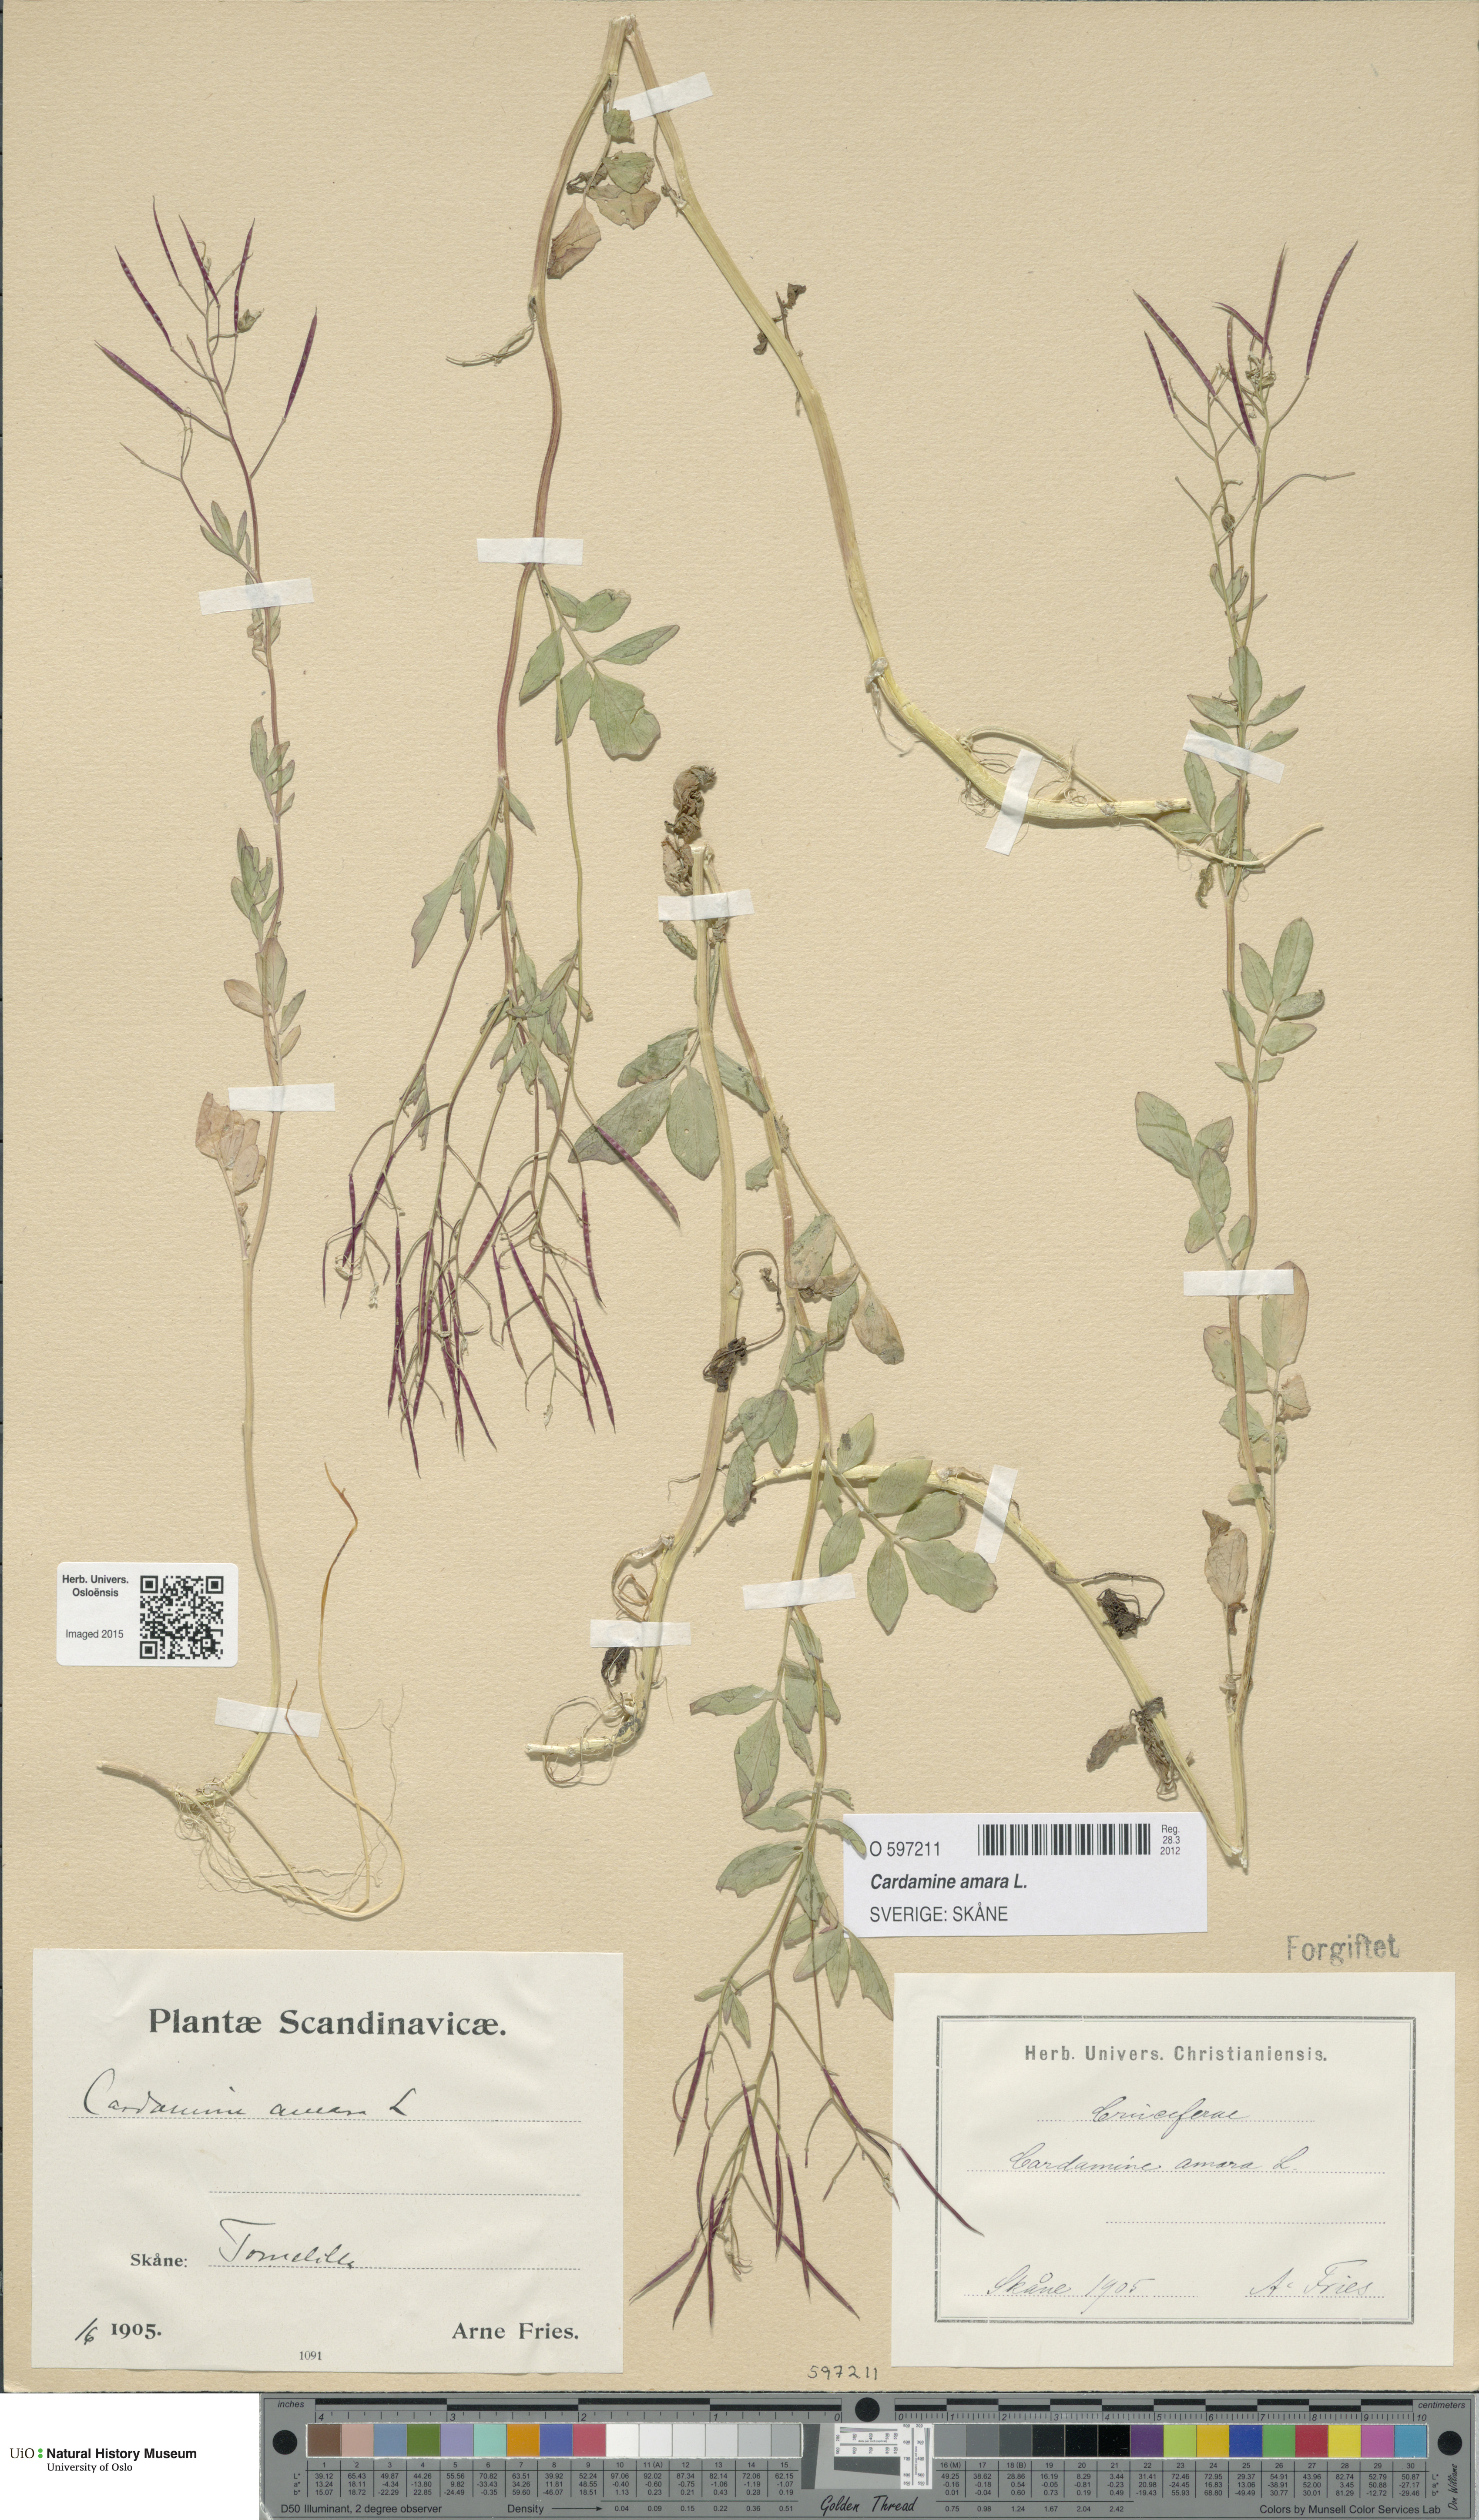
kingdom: Plantae
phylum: Tracheophyta
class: Magnoliopsida
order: Brassicales
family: Brassicaceae
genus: Cardamine
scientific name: Cardamine amara
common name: Large bitter-cress
